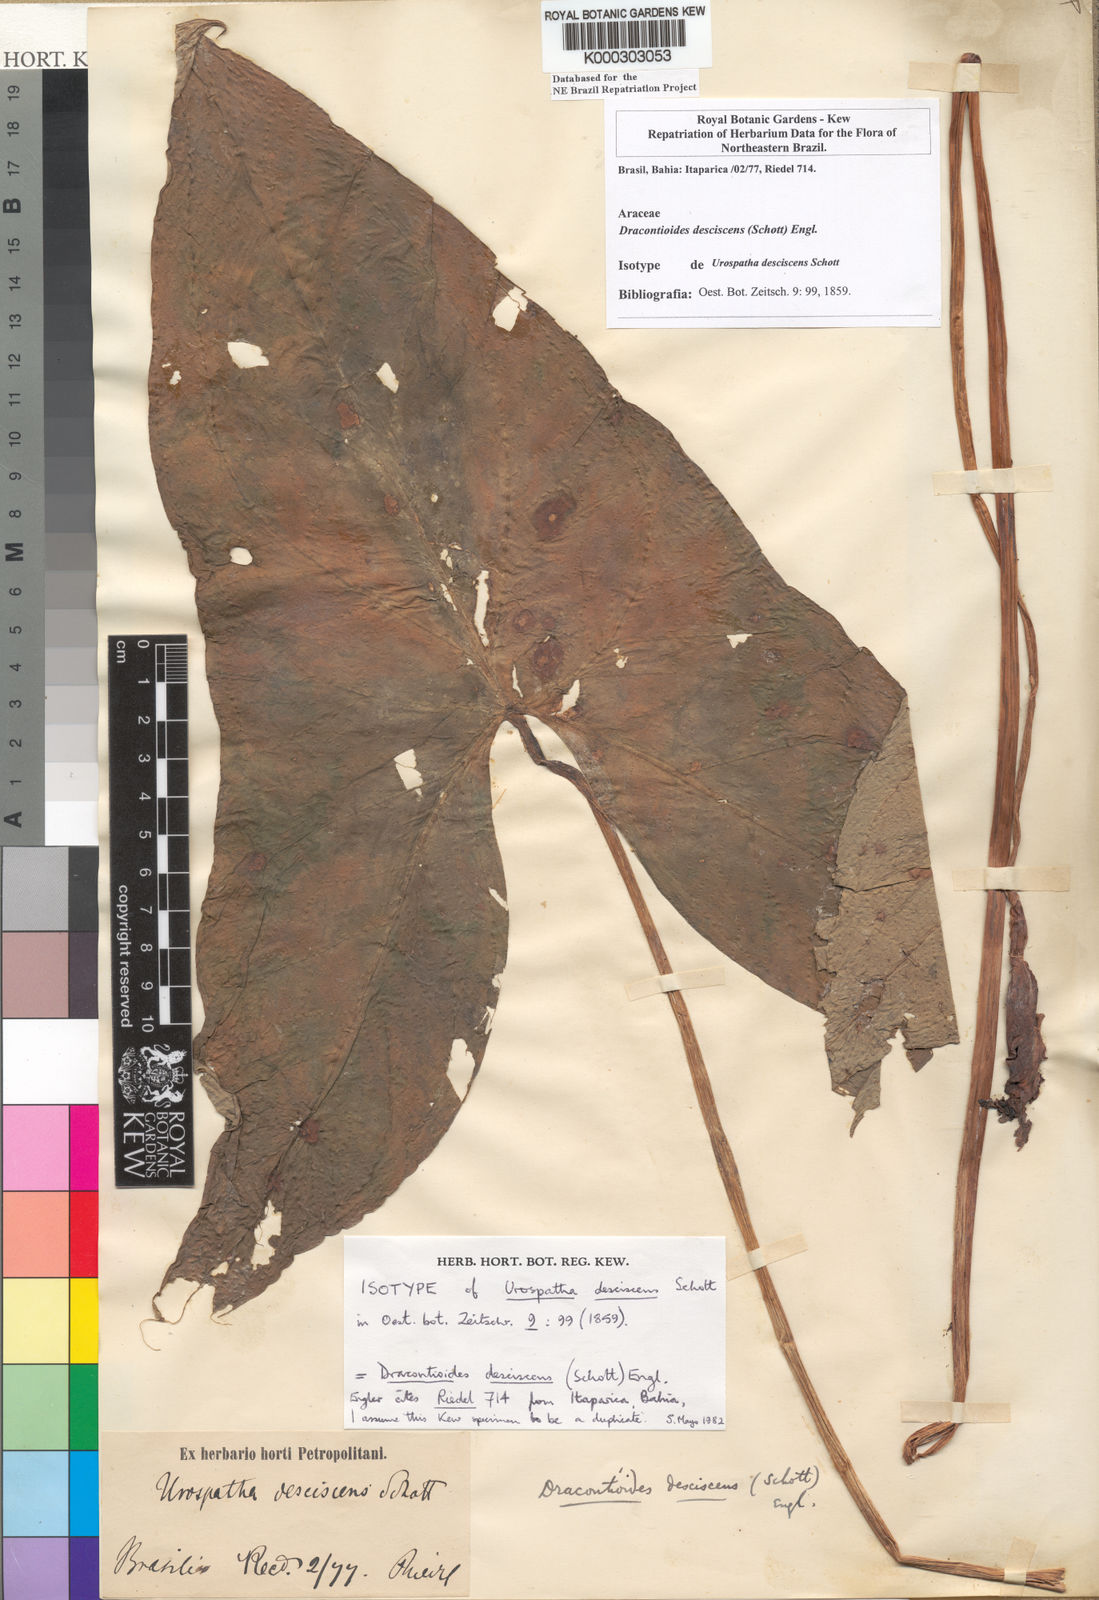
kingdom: Plantae
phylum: Tracheophyta
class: Liliopsida
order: Alismatales
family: Araceae
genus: Dracontioides
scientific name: Dracontioides desciscens
